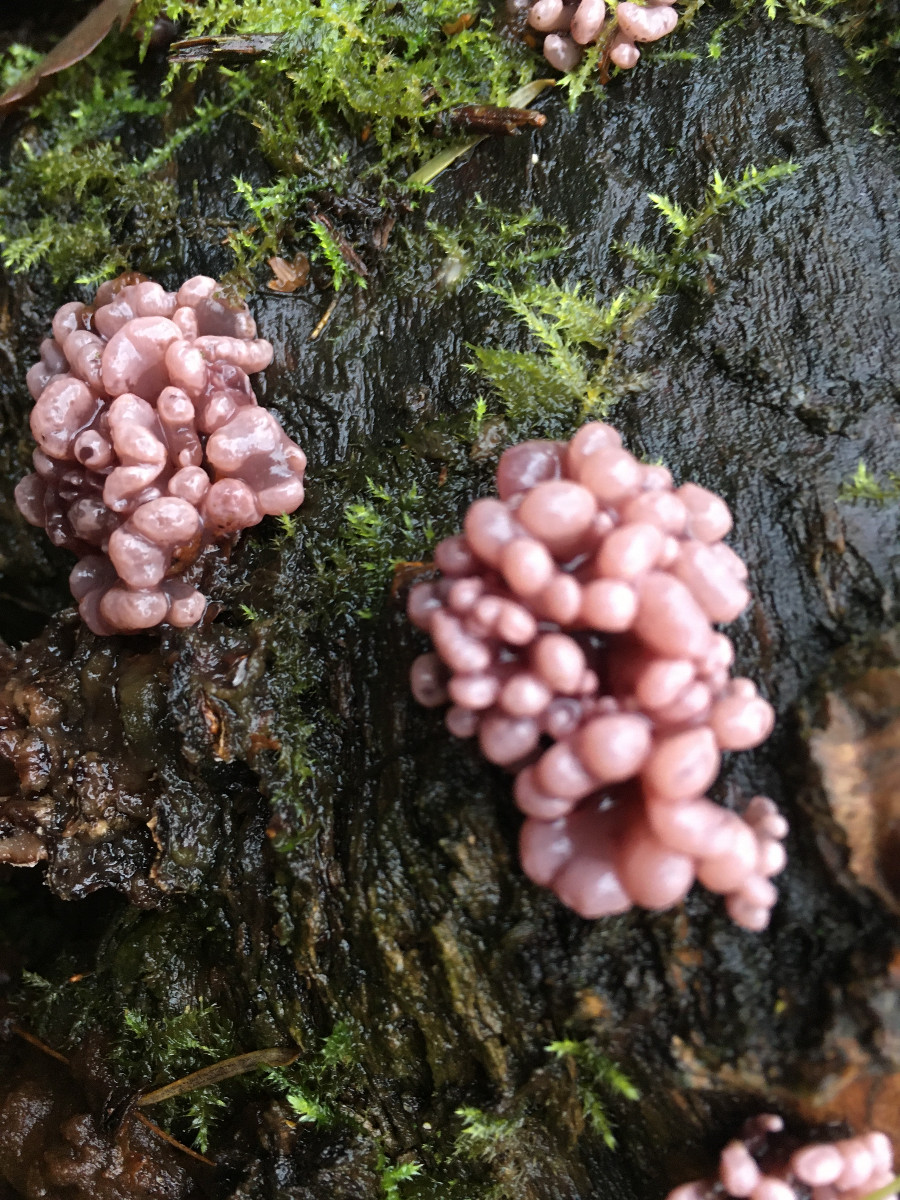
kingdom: Fungi
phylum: Ascomycota
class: Leotiomycetes
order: Helotiales
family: Gelatinodiscaceae
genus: Ascocoryne
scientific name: Ascocoryne sarcoides
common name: rødlilla sejskive
